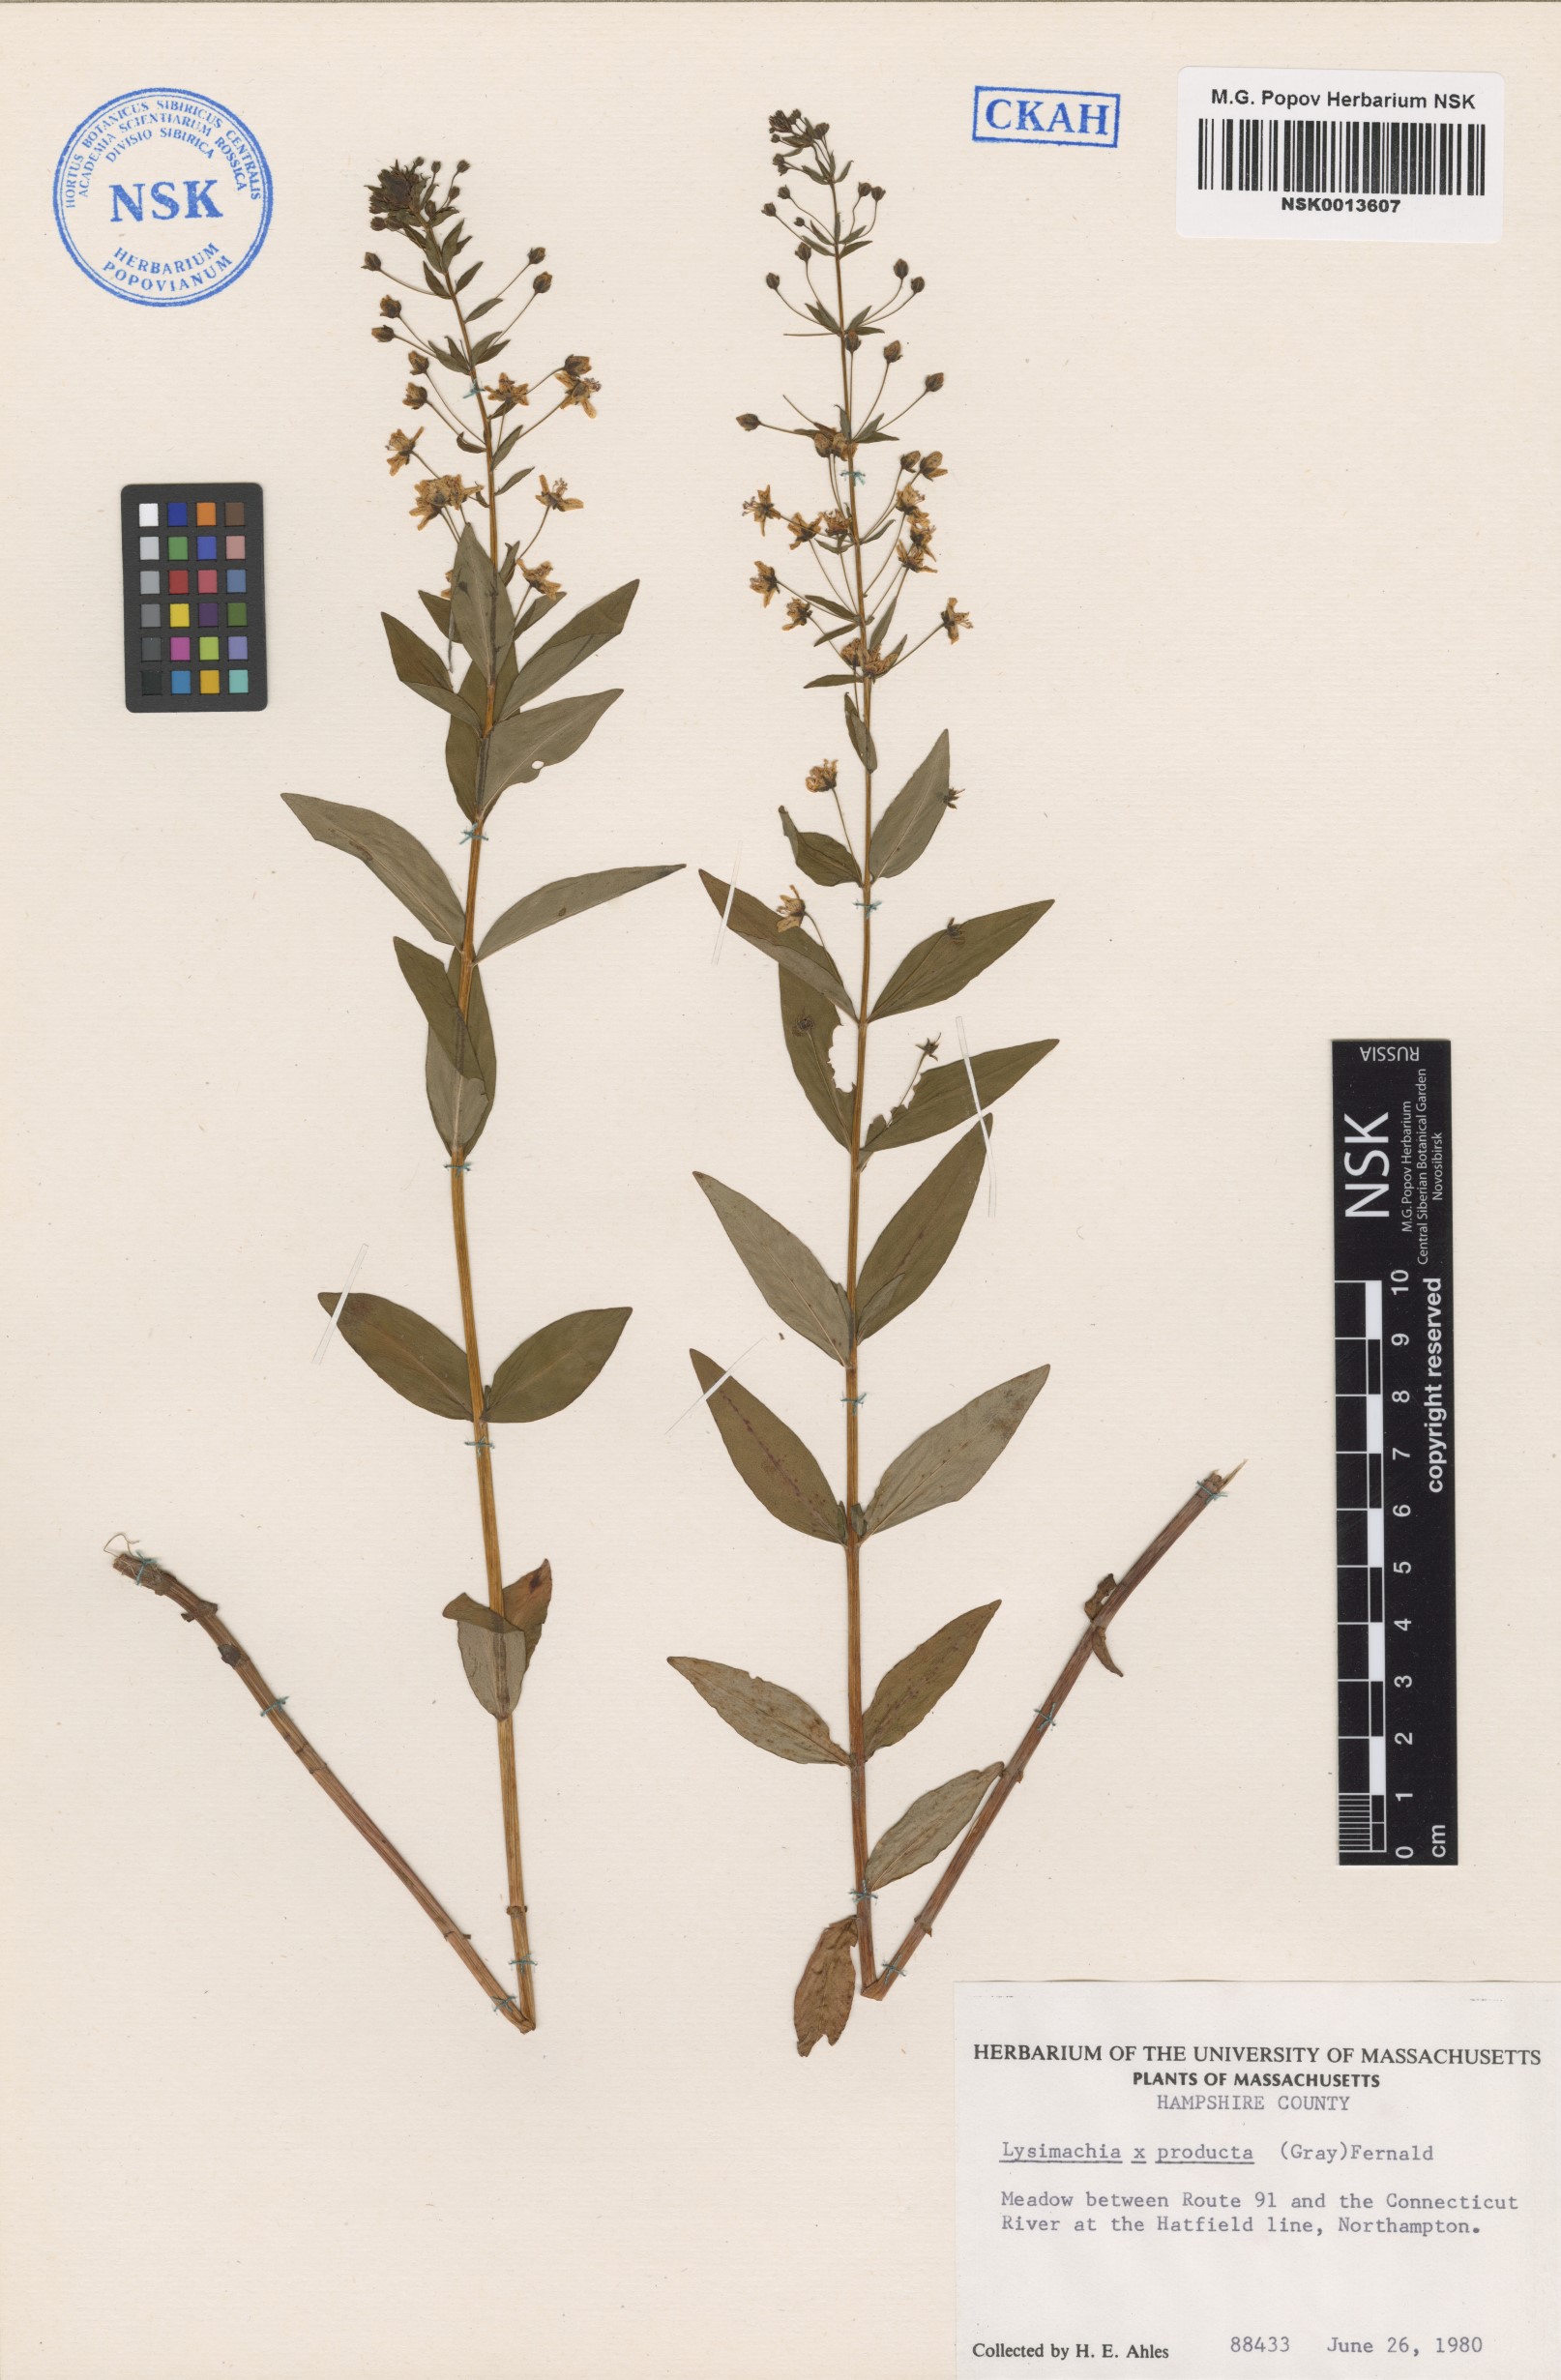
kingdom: Plantae
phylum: Tracheophyta
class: Magnoliopsida
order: Ericales
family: Primulaceae
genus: Lysimachia
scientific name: Lysimachia producta
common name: Loosestrife
